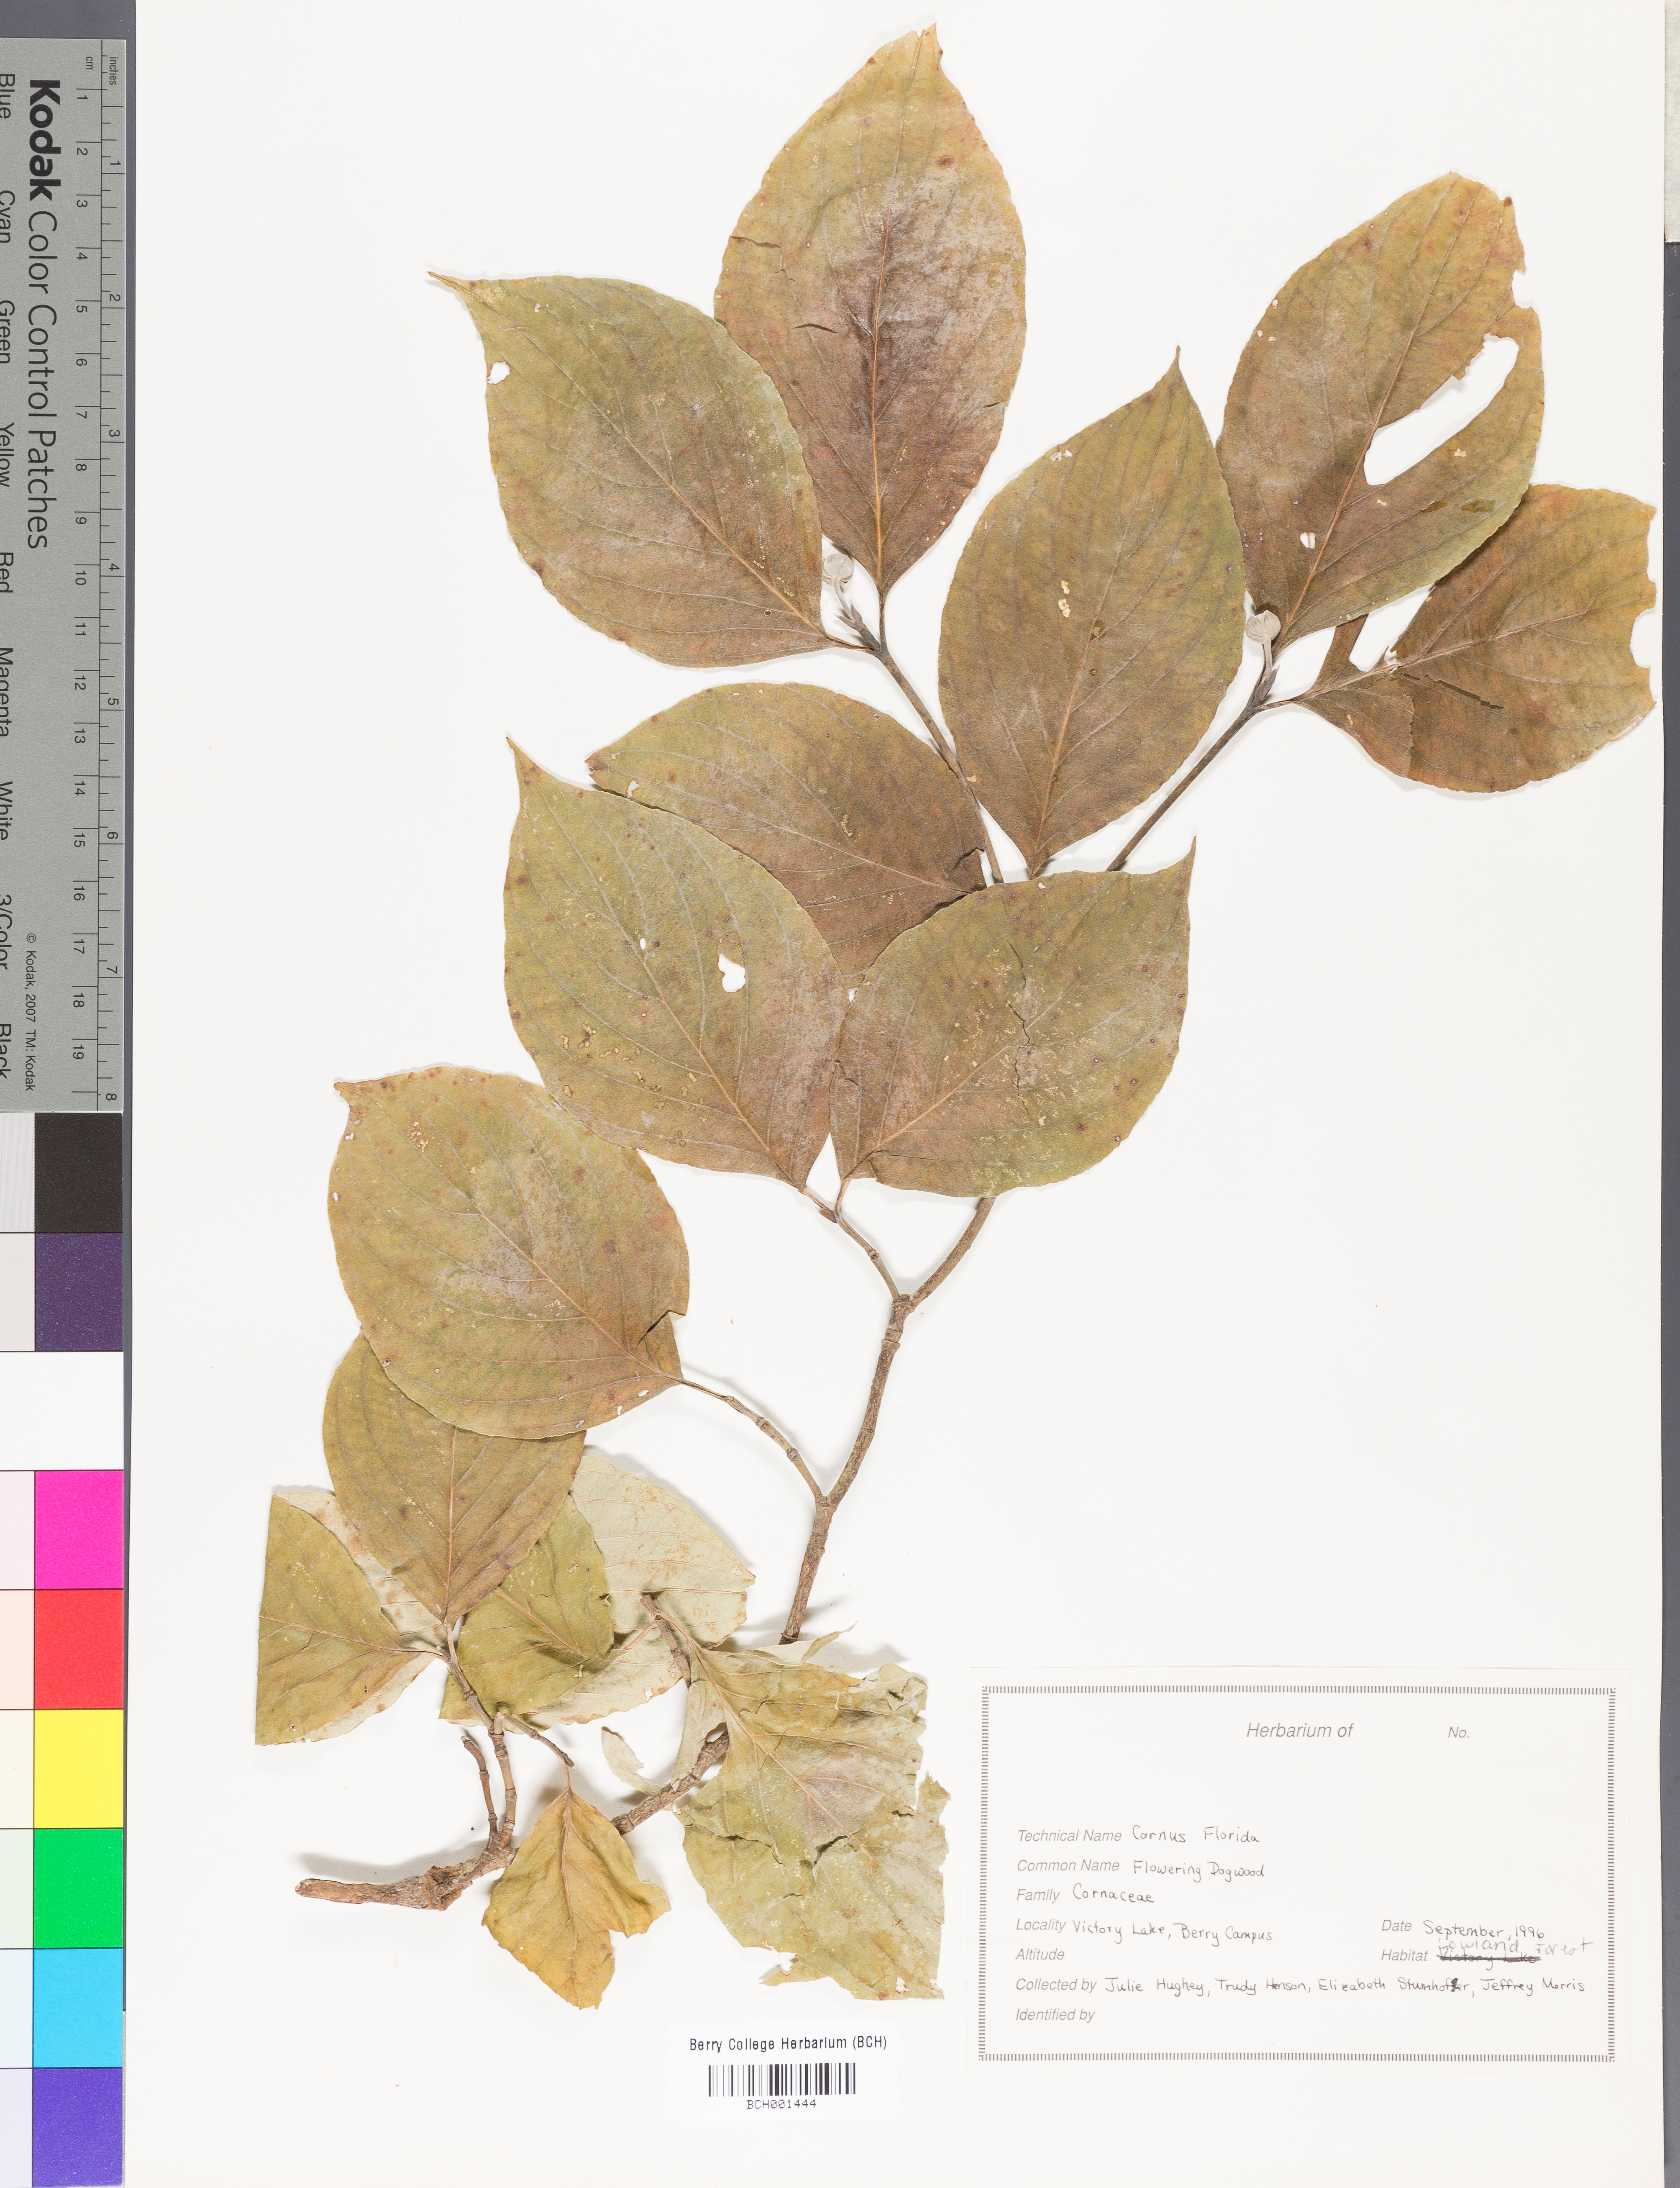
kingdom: Plantae
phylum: Tracheophyta
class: Magnoliopsida
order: Cornales
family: Cornaceae
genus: Cornus
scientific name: Cornus florida
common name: Flowering dogwood
